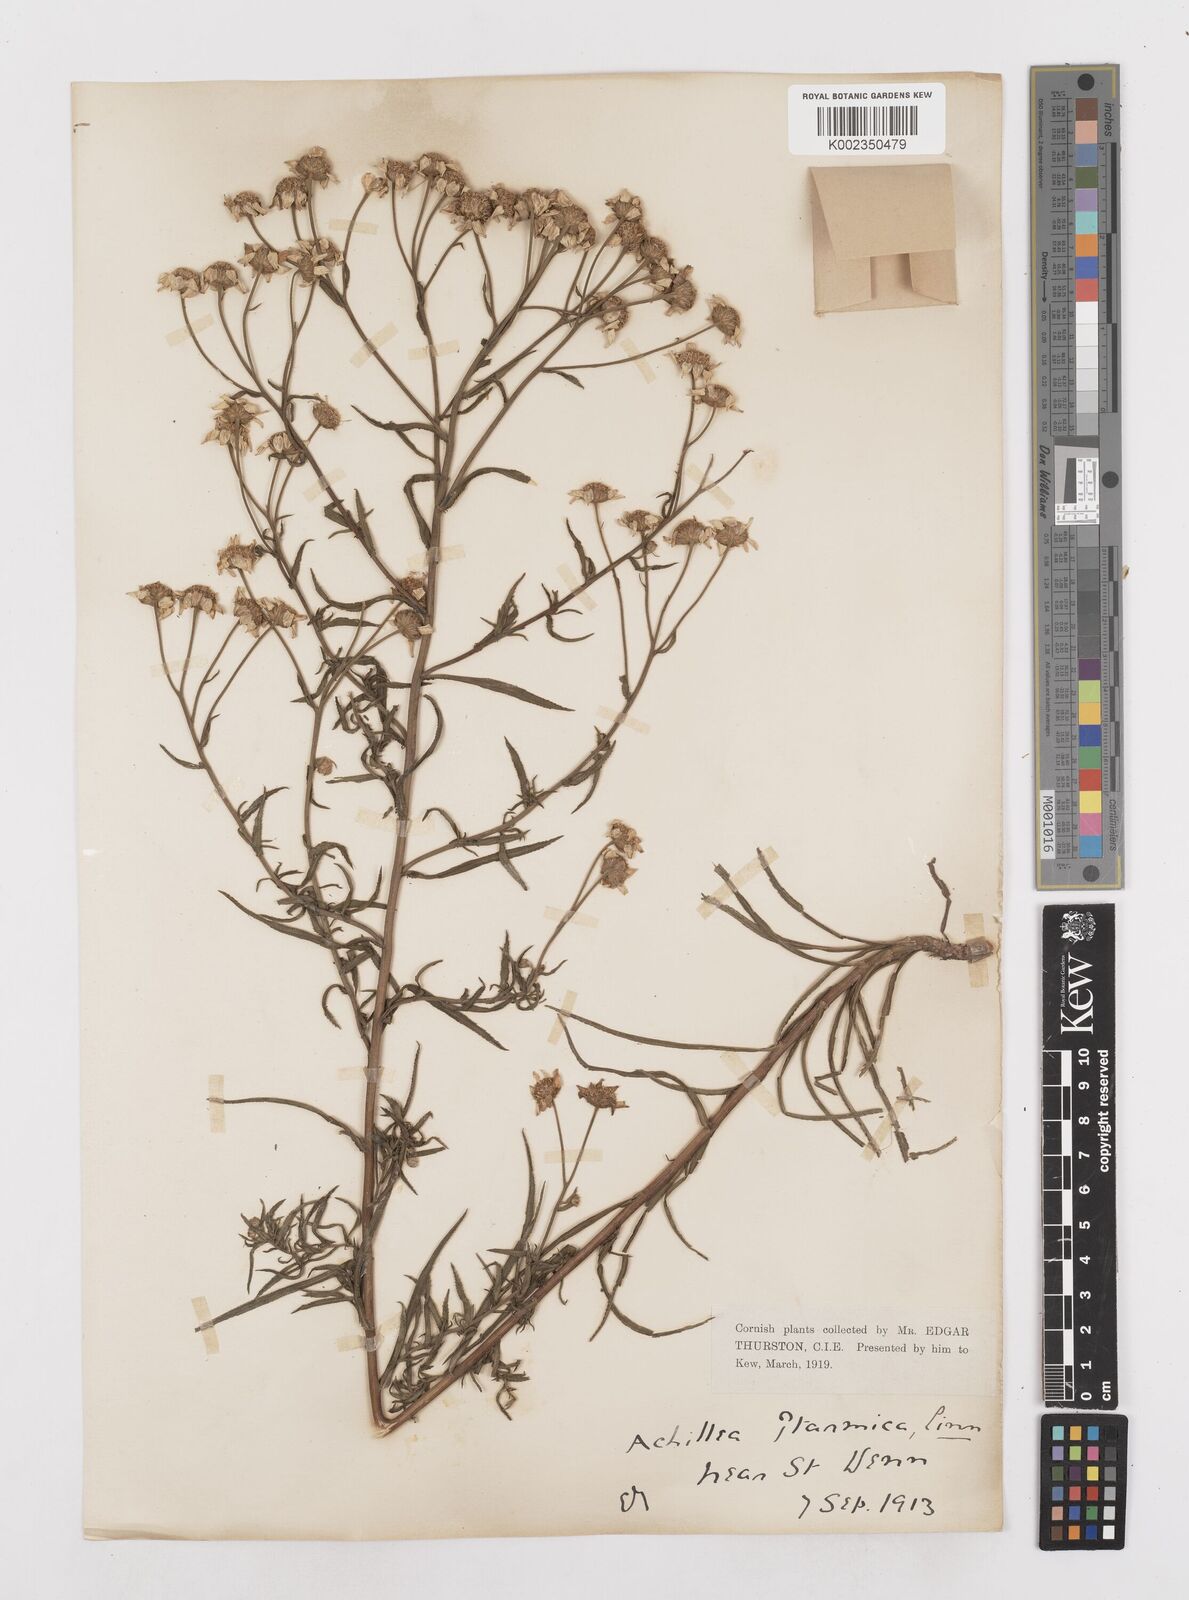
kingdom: Plantae
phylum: Tracheophyta
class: Magnoliopsida
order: Asterales
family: Asteraceae
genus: Achillea
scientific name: Achillea ptarmica
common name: Sneezeweed
